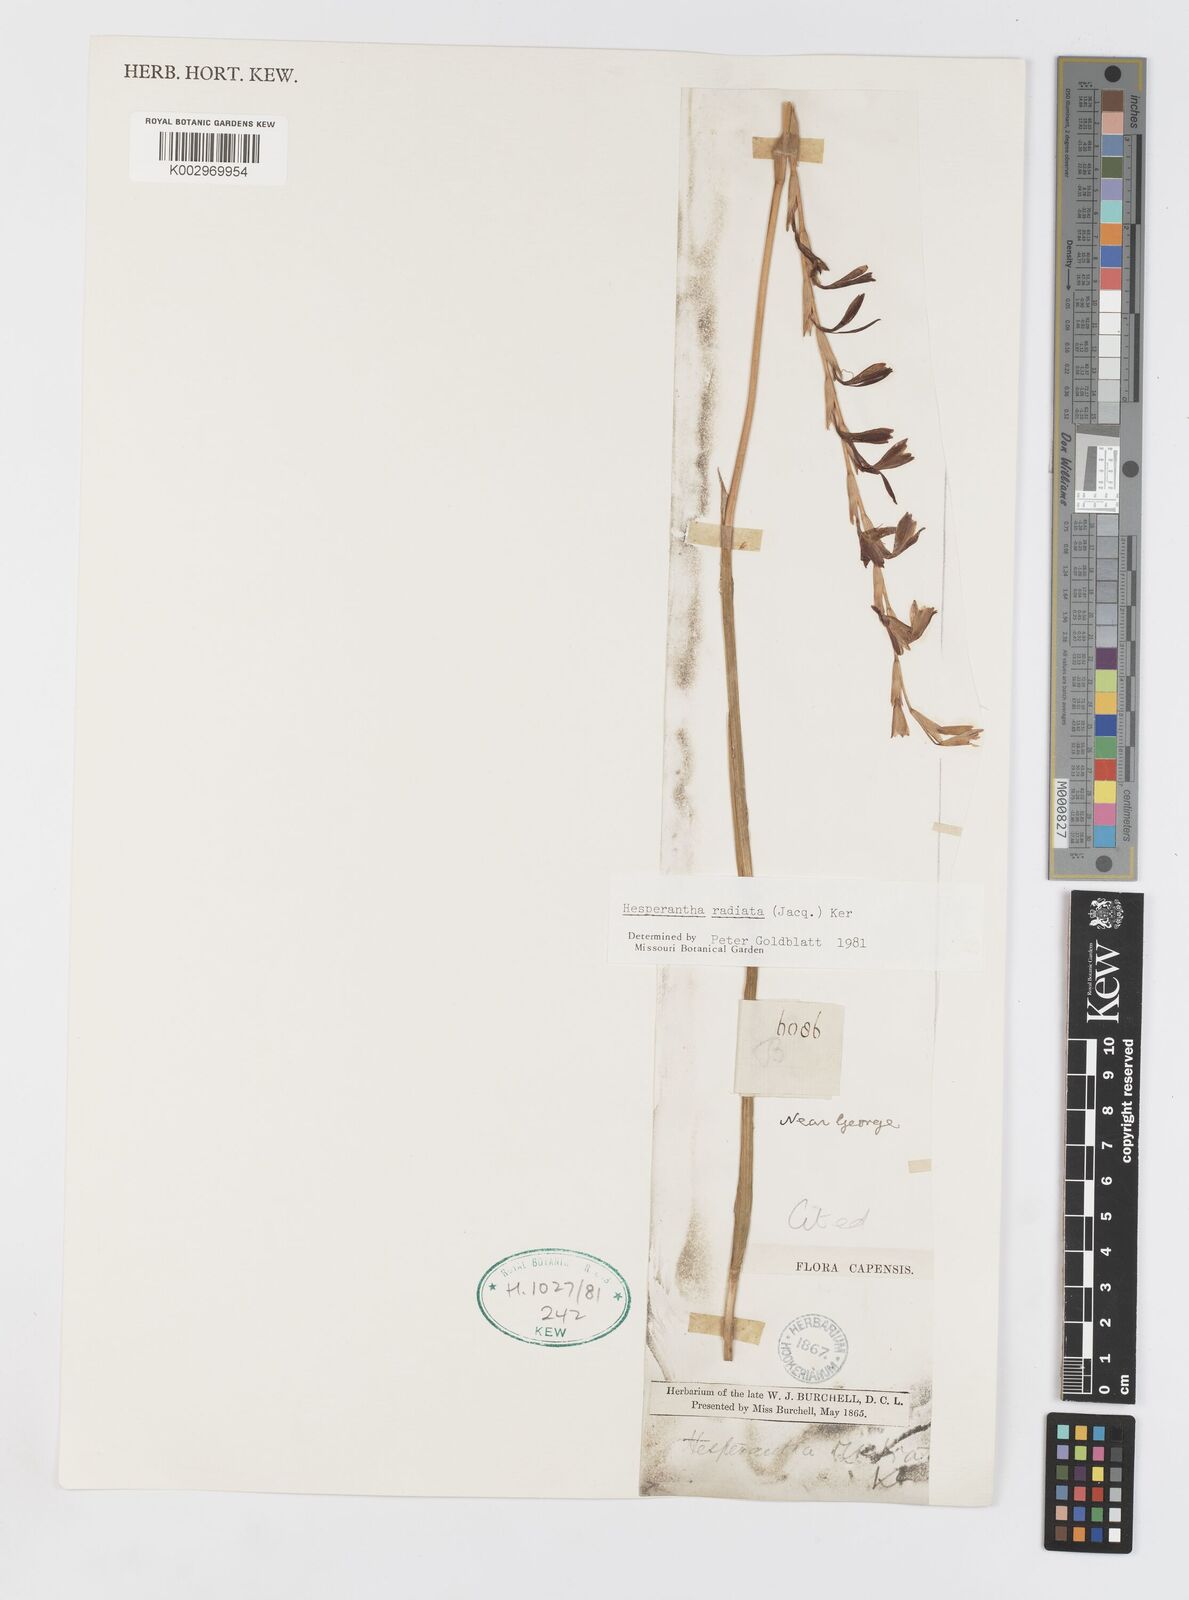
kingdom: Plantae
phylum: Tracheophyta
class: Liliopsida
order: Asparagales
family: Iridaceae
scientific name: Iridaceae
